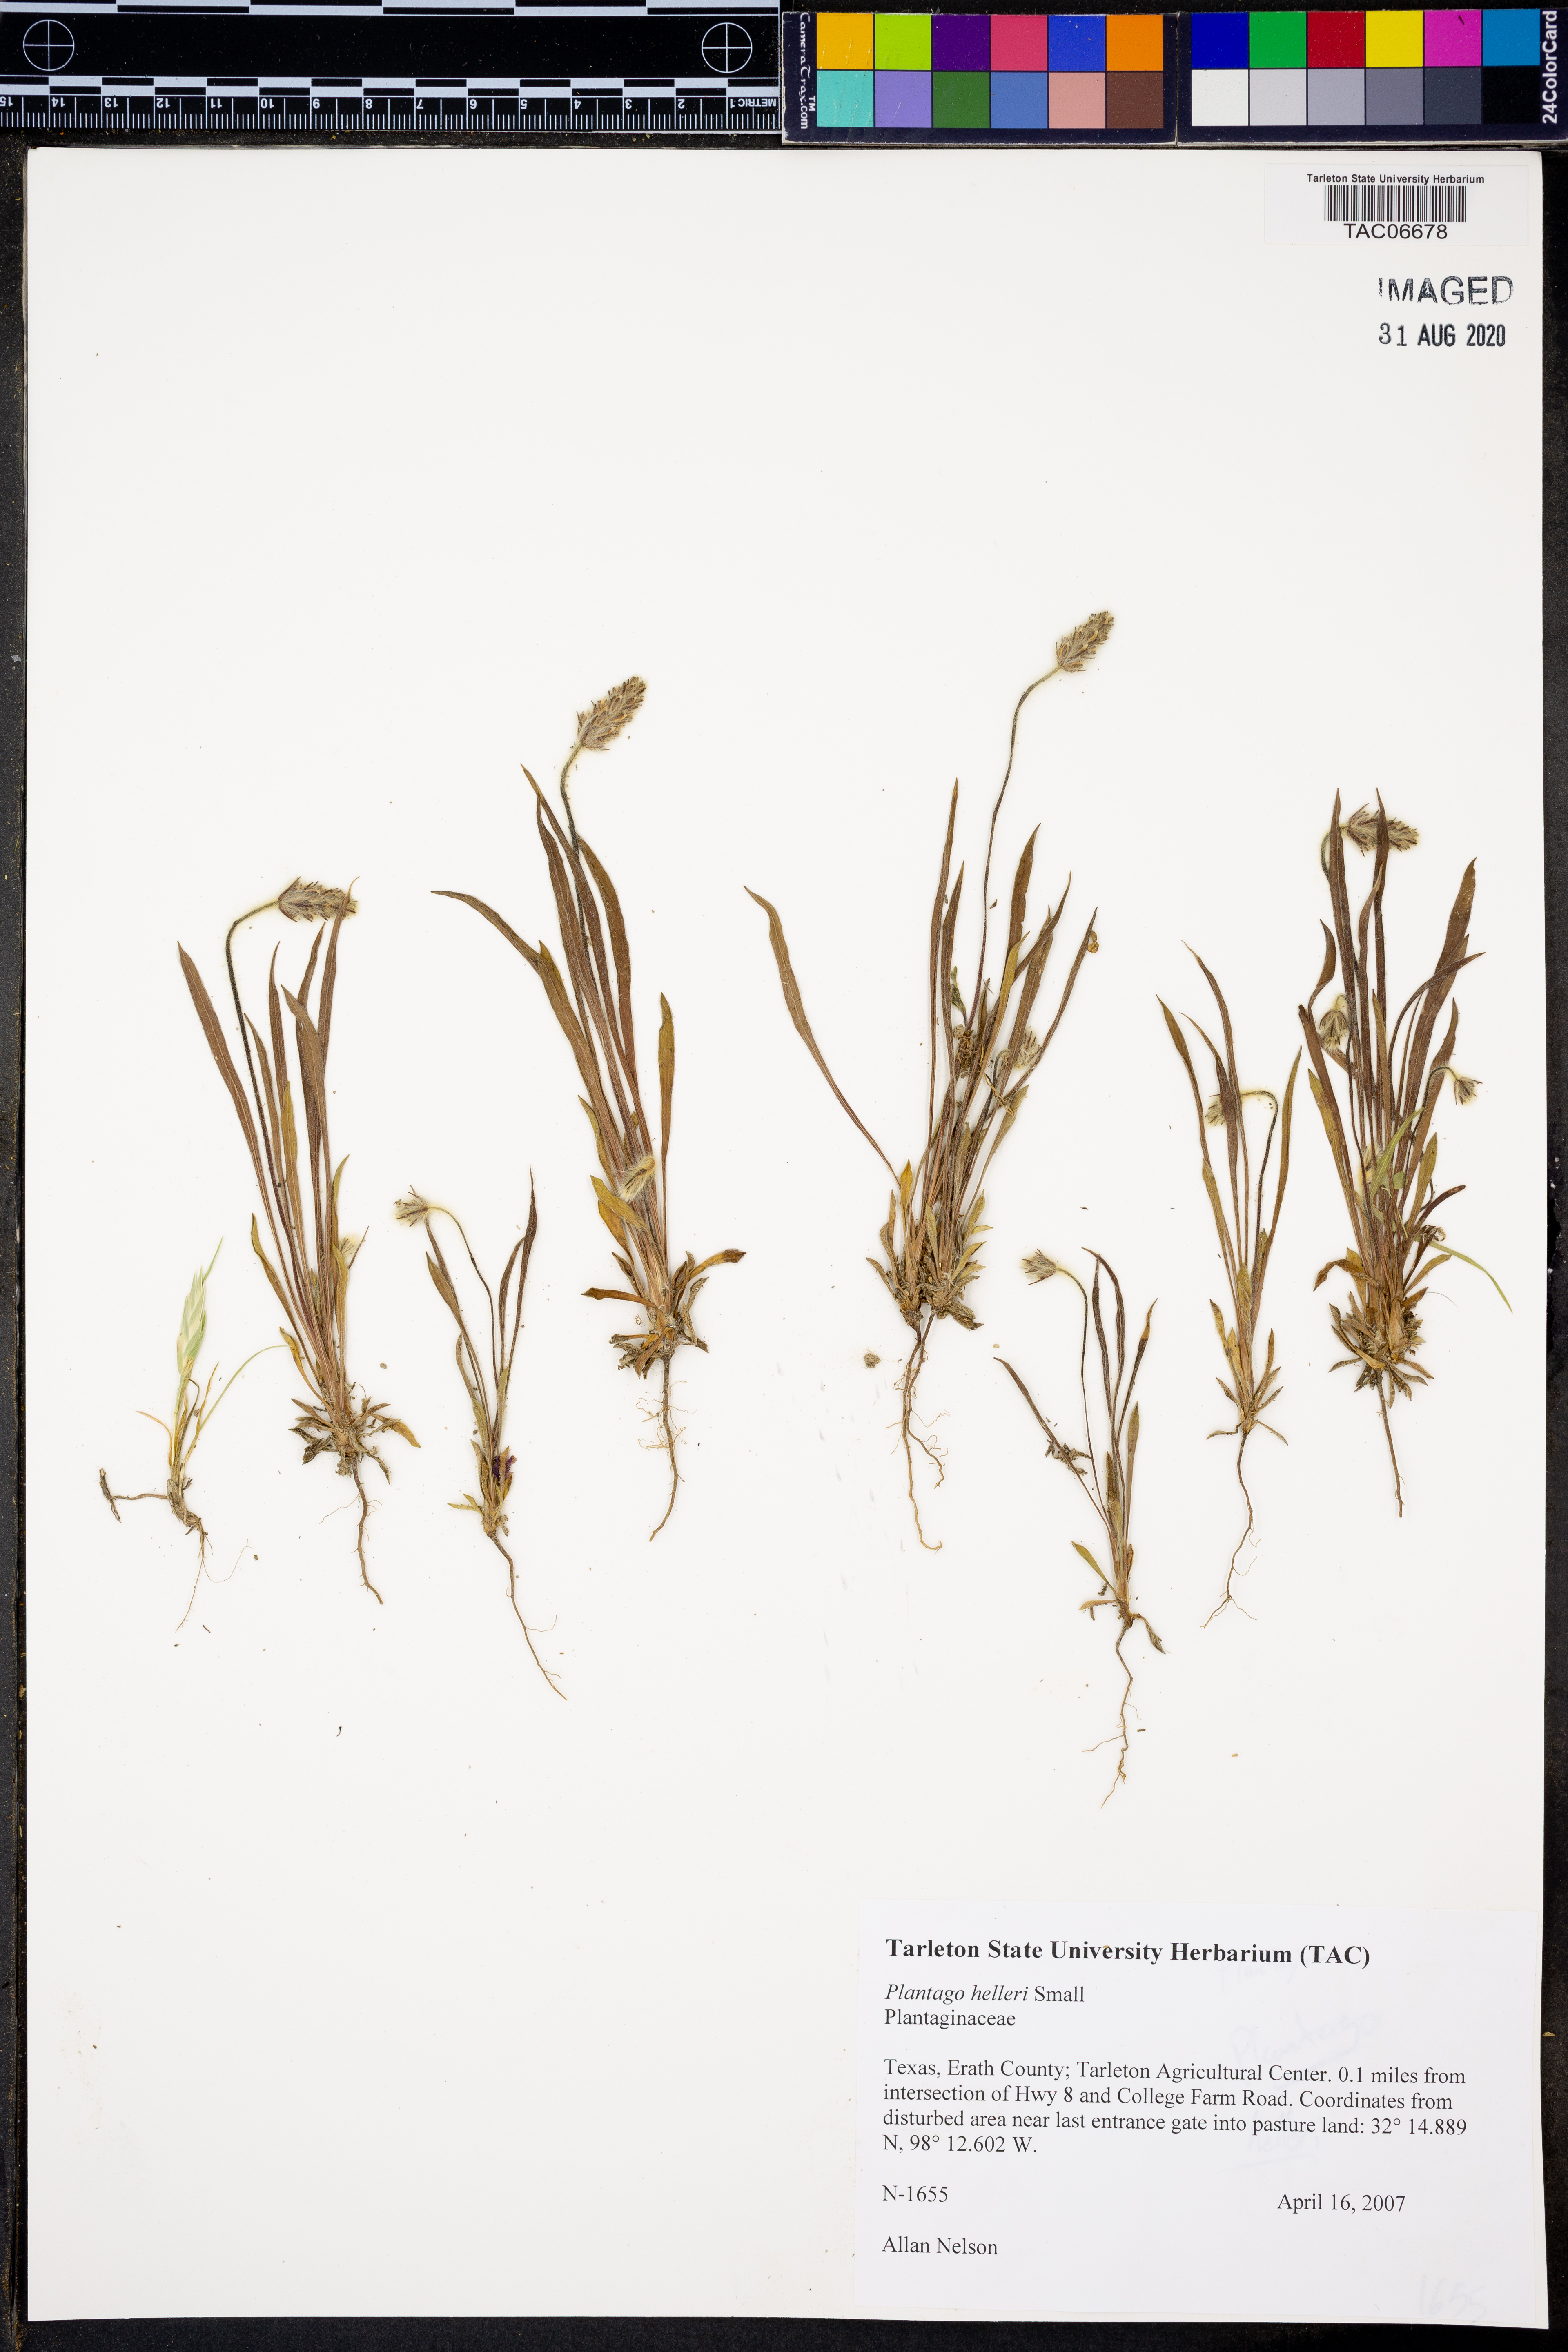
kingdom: Plantae
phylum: Tracheophyta
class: Magnoliopsida
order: Lamiales
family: Plantaginaceae
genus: Plantago
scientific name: Plantago helleri
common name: Heller's plantain
